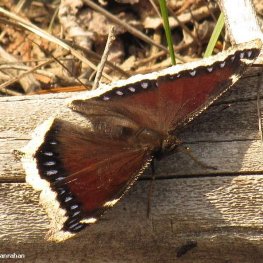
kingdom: Animalia
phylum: Arthropoda
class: Insecta
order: Lepidoptera
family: Nymphalidae
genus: Nymphalis
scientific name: Nymphalis antiopa
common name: Mourning Cloak
